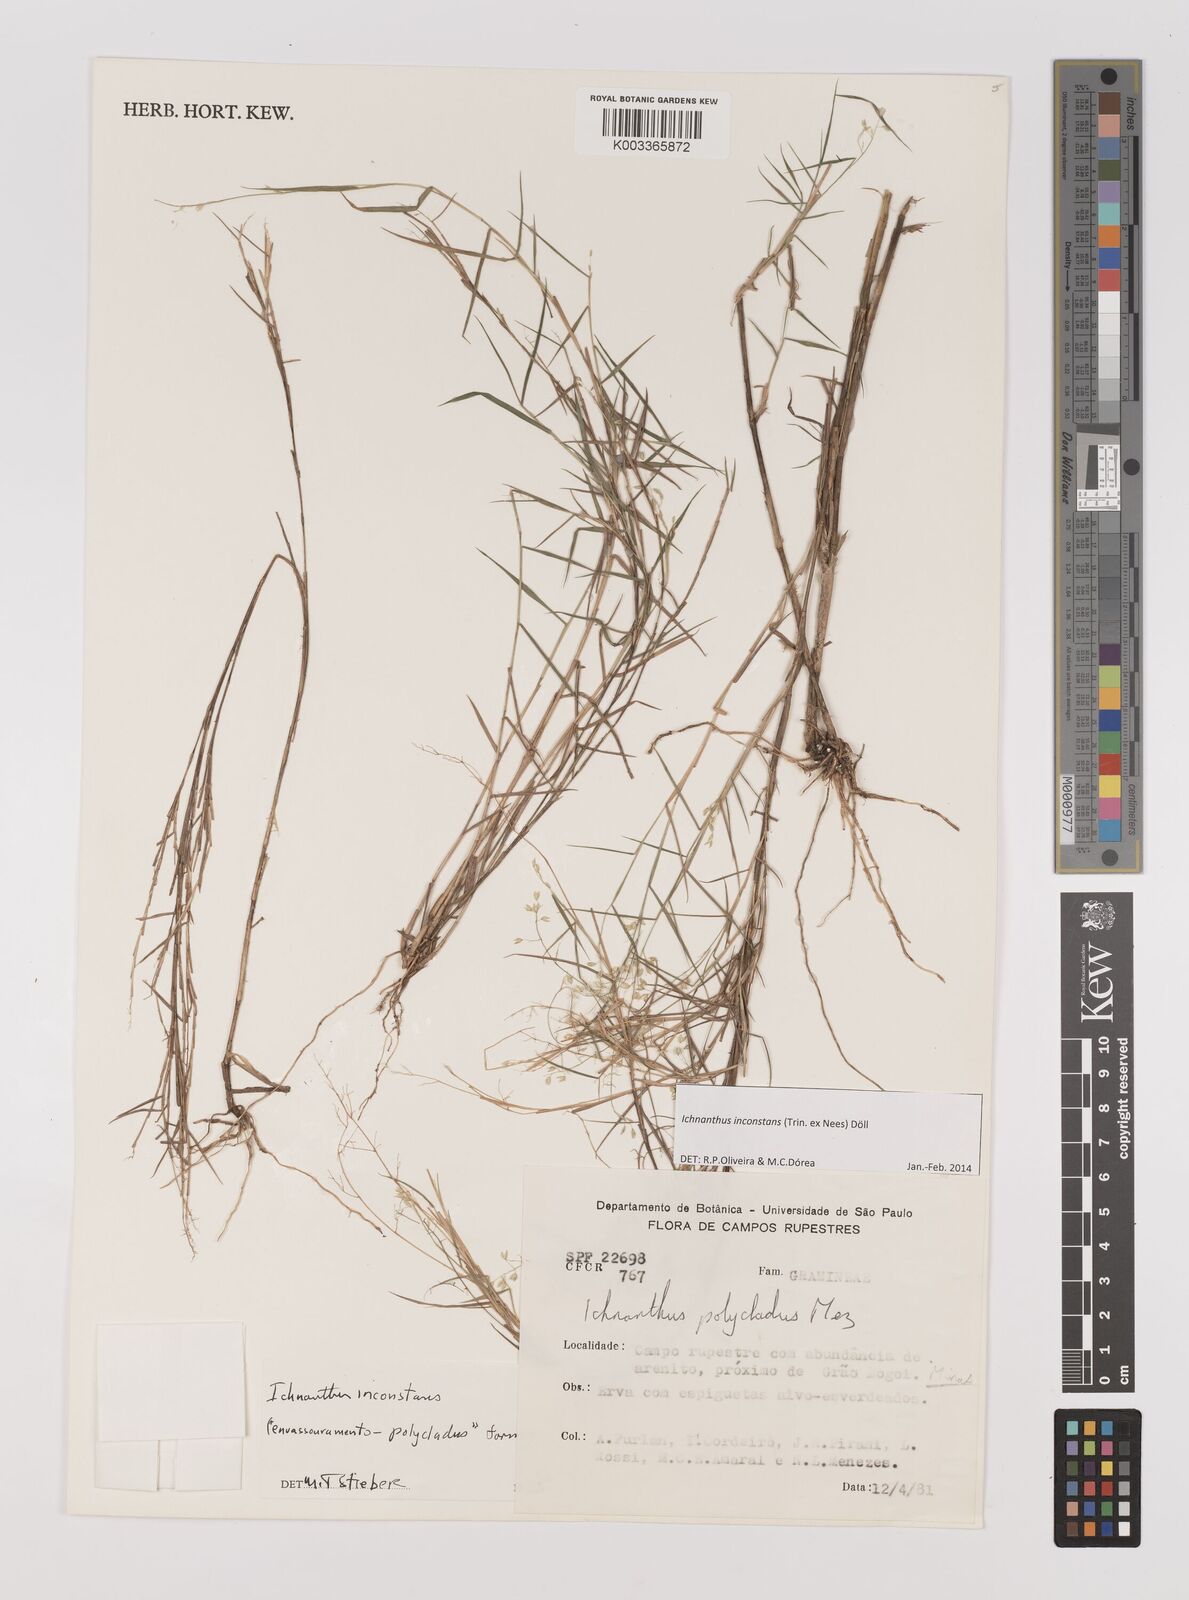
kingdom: Plantae
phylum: Tracheophyta
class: Liliopsida
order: Poales
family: Poaceae
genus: Ichnanthus
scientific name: Ichnanthus inconstans
